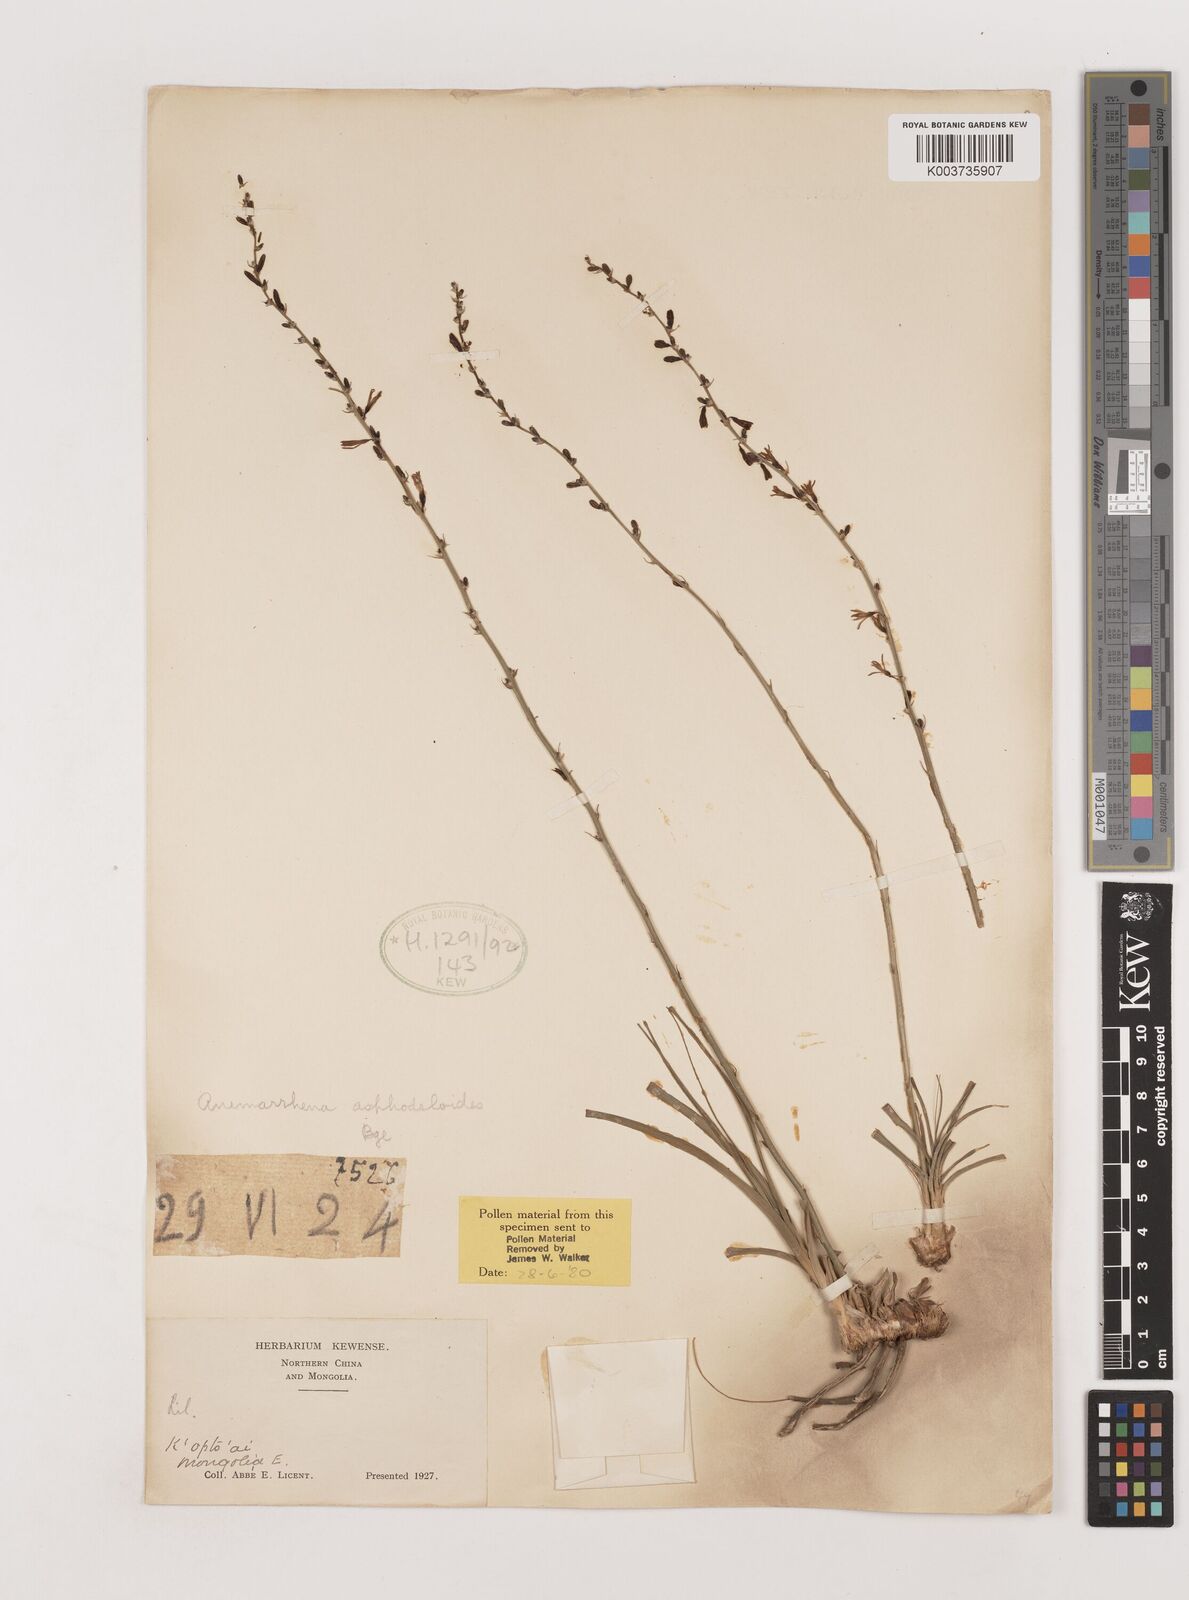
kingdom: Plantae
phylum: Tracheophyta
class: Liliopsida
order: Asparagales
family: Asparagaceae
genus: Anemarrhena
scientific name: Anemarrhena asphodeloides
